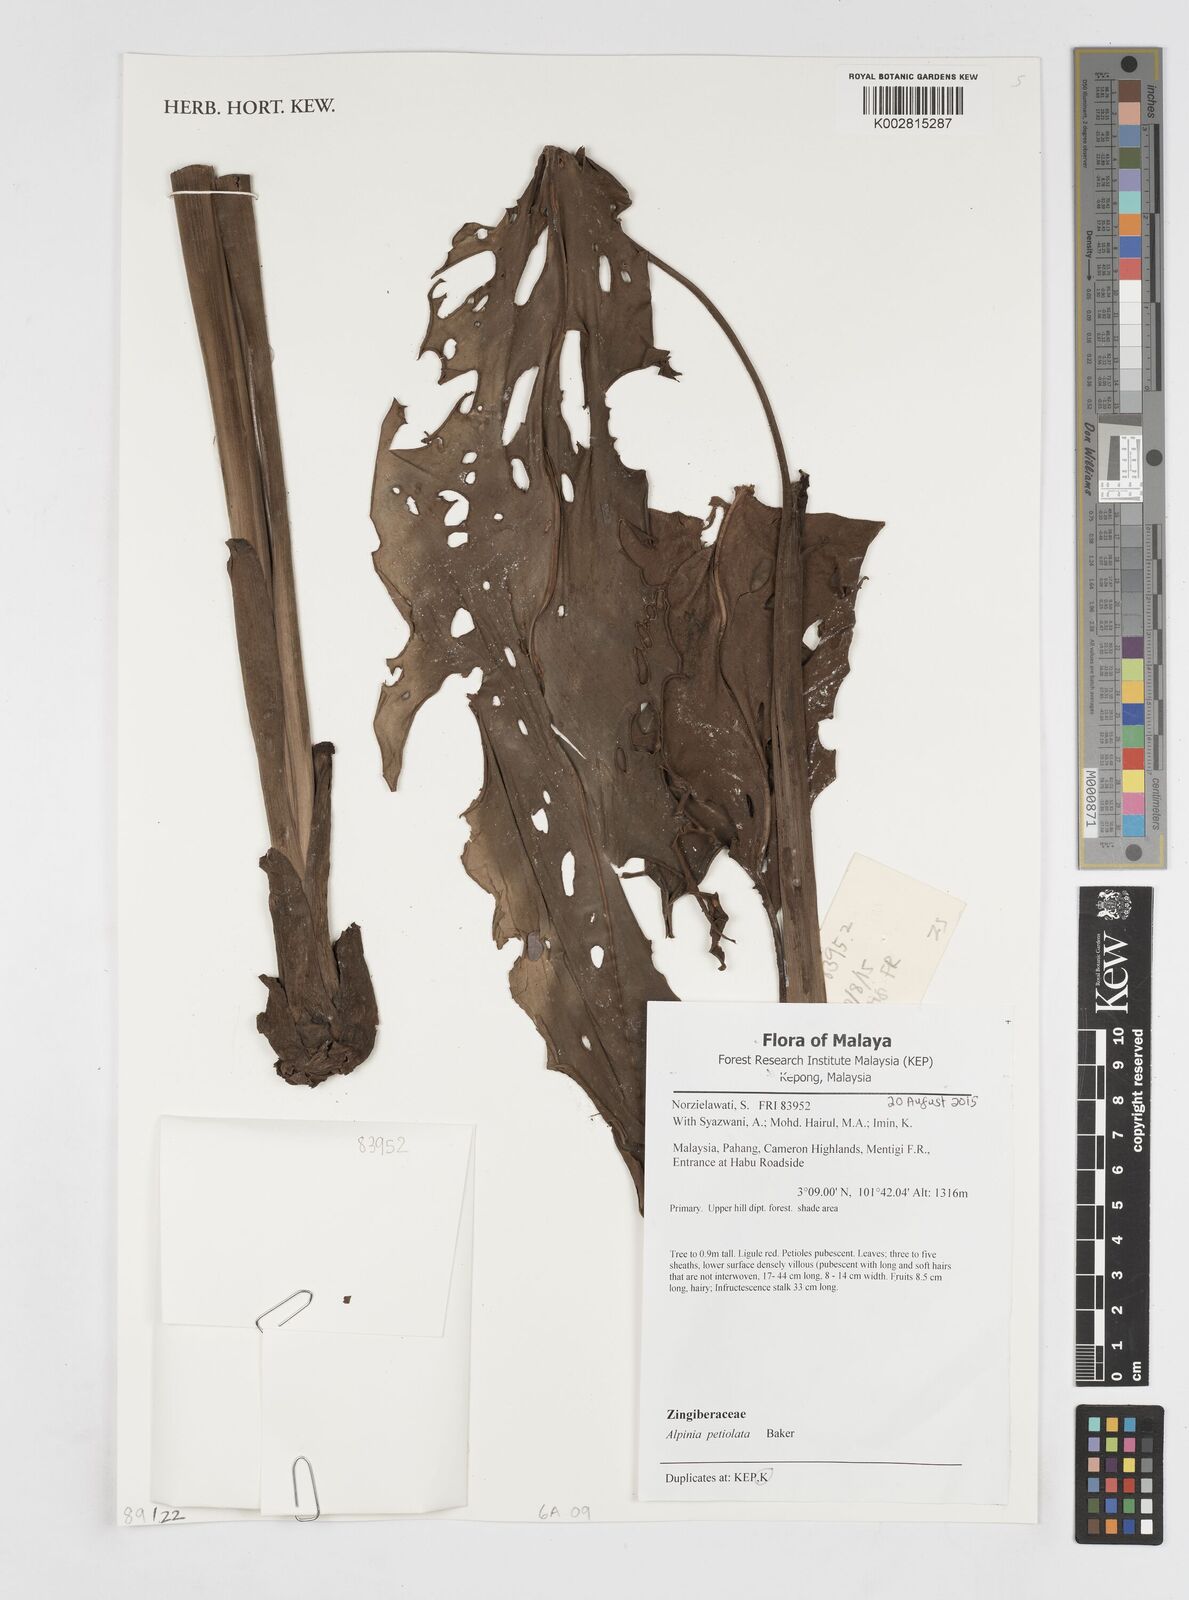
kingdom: Plantae
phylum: Tracheophyta
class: Liliopsida
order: Zingiberales
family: Zingiberaceae
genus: Alpinia
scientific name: Alpinia petiolata
